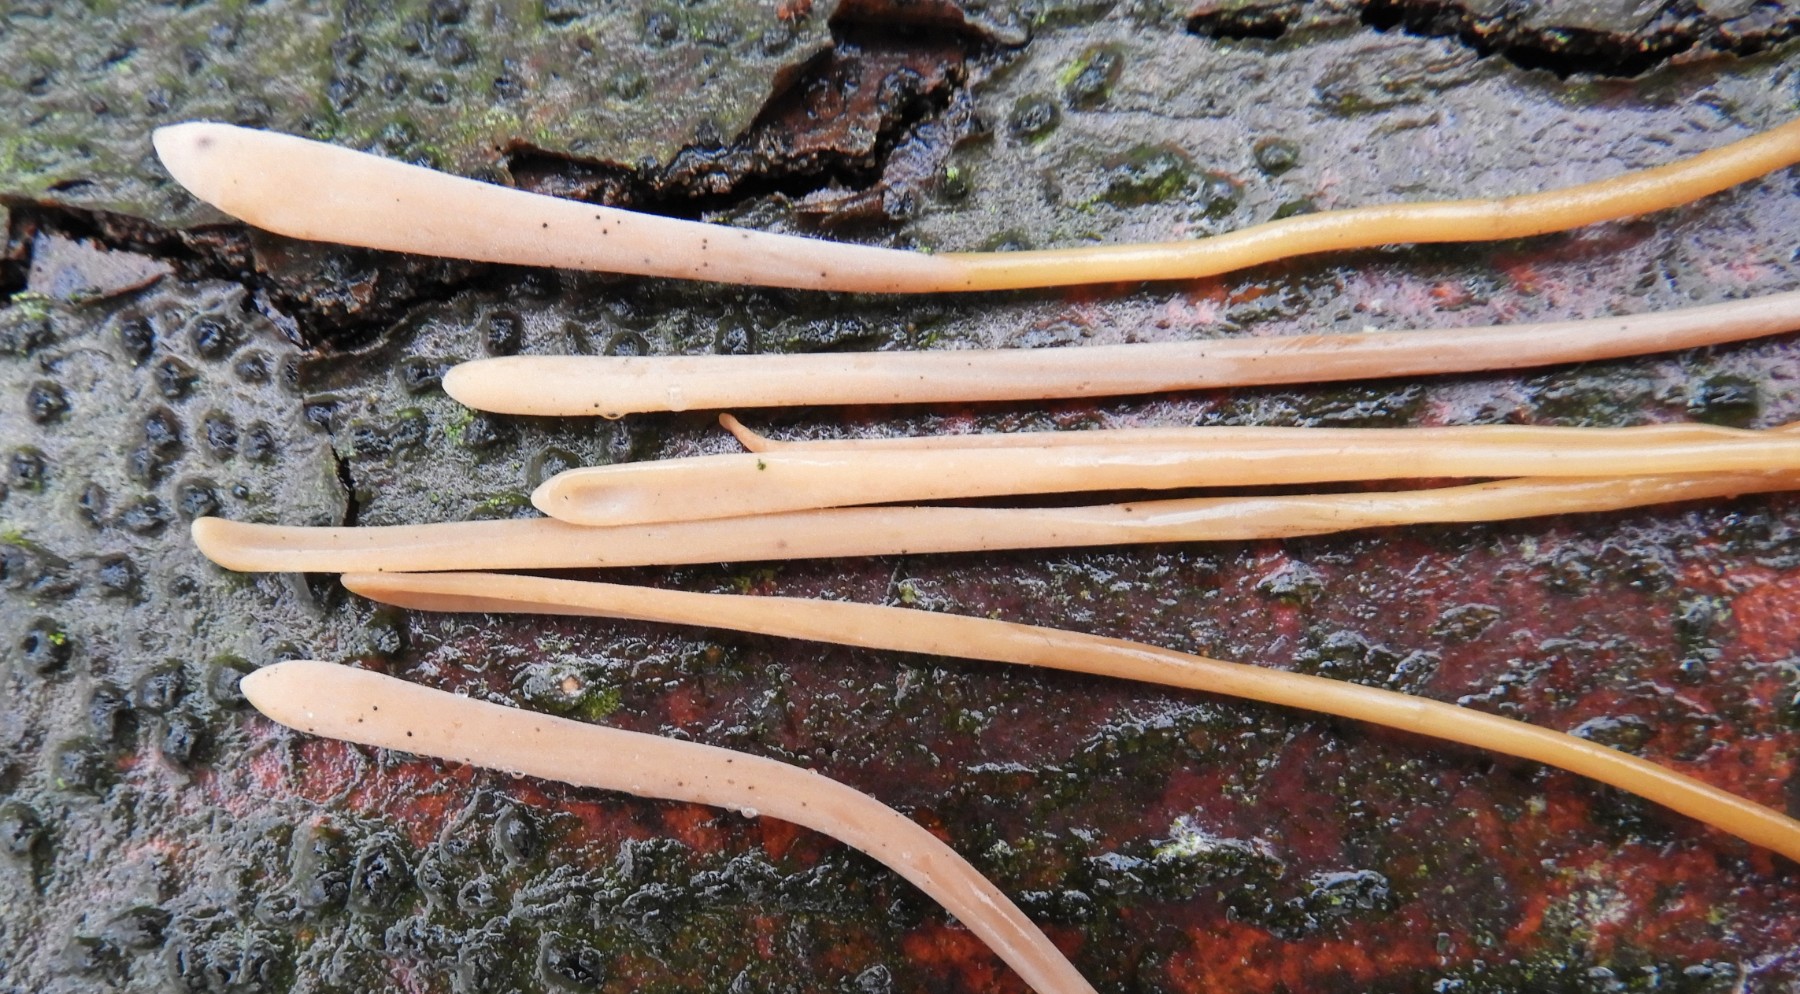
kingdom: Fungi
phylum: Basidiomycota
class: Agaricomycetes
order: Agaricales
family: Typhulaceae
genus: Typhula
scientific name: Typhula fistulosa
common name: pibet rørkølle
